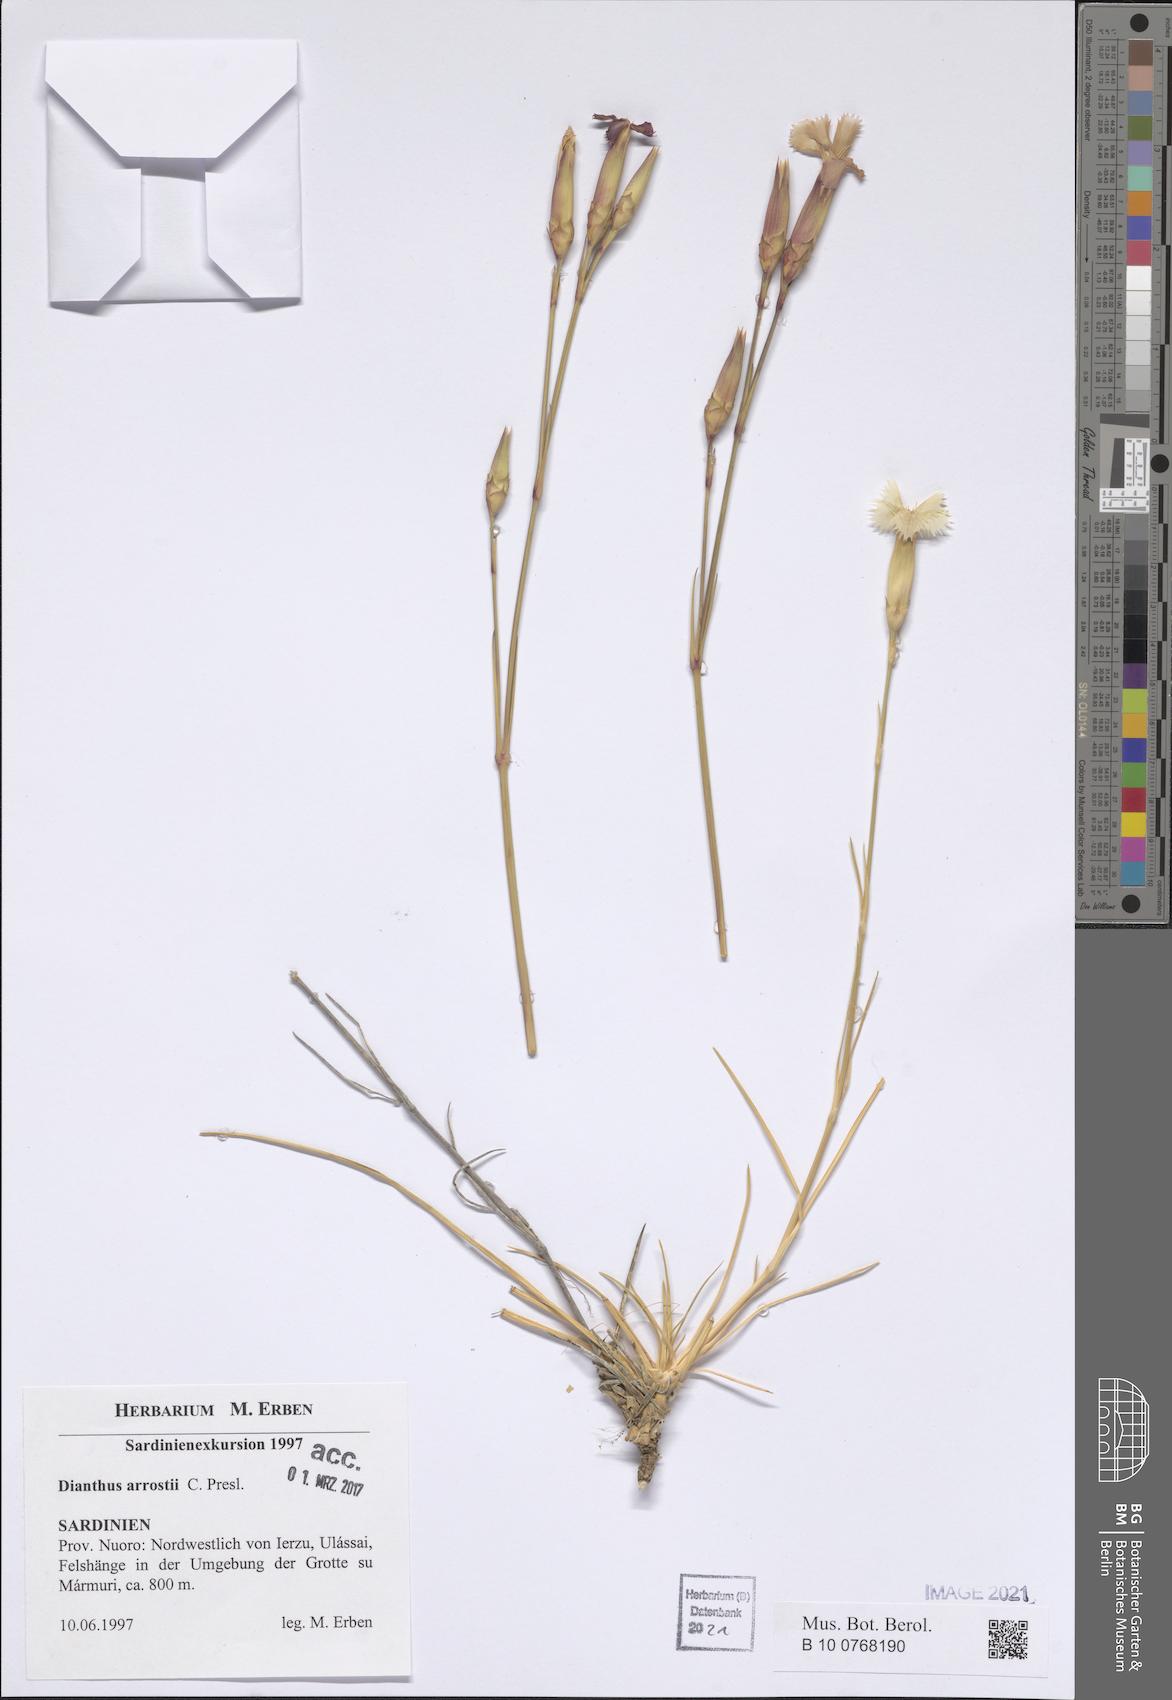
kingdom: Plantae
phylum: Tracheophyta
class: Magnoliopsida
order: Caryophyllales
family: Caryophyllaceae
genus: Dianthus
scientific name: Dianthus arrostii
